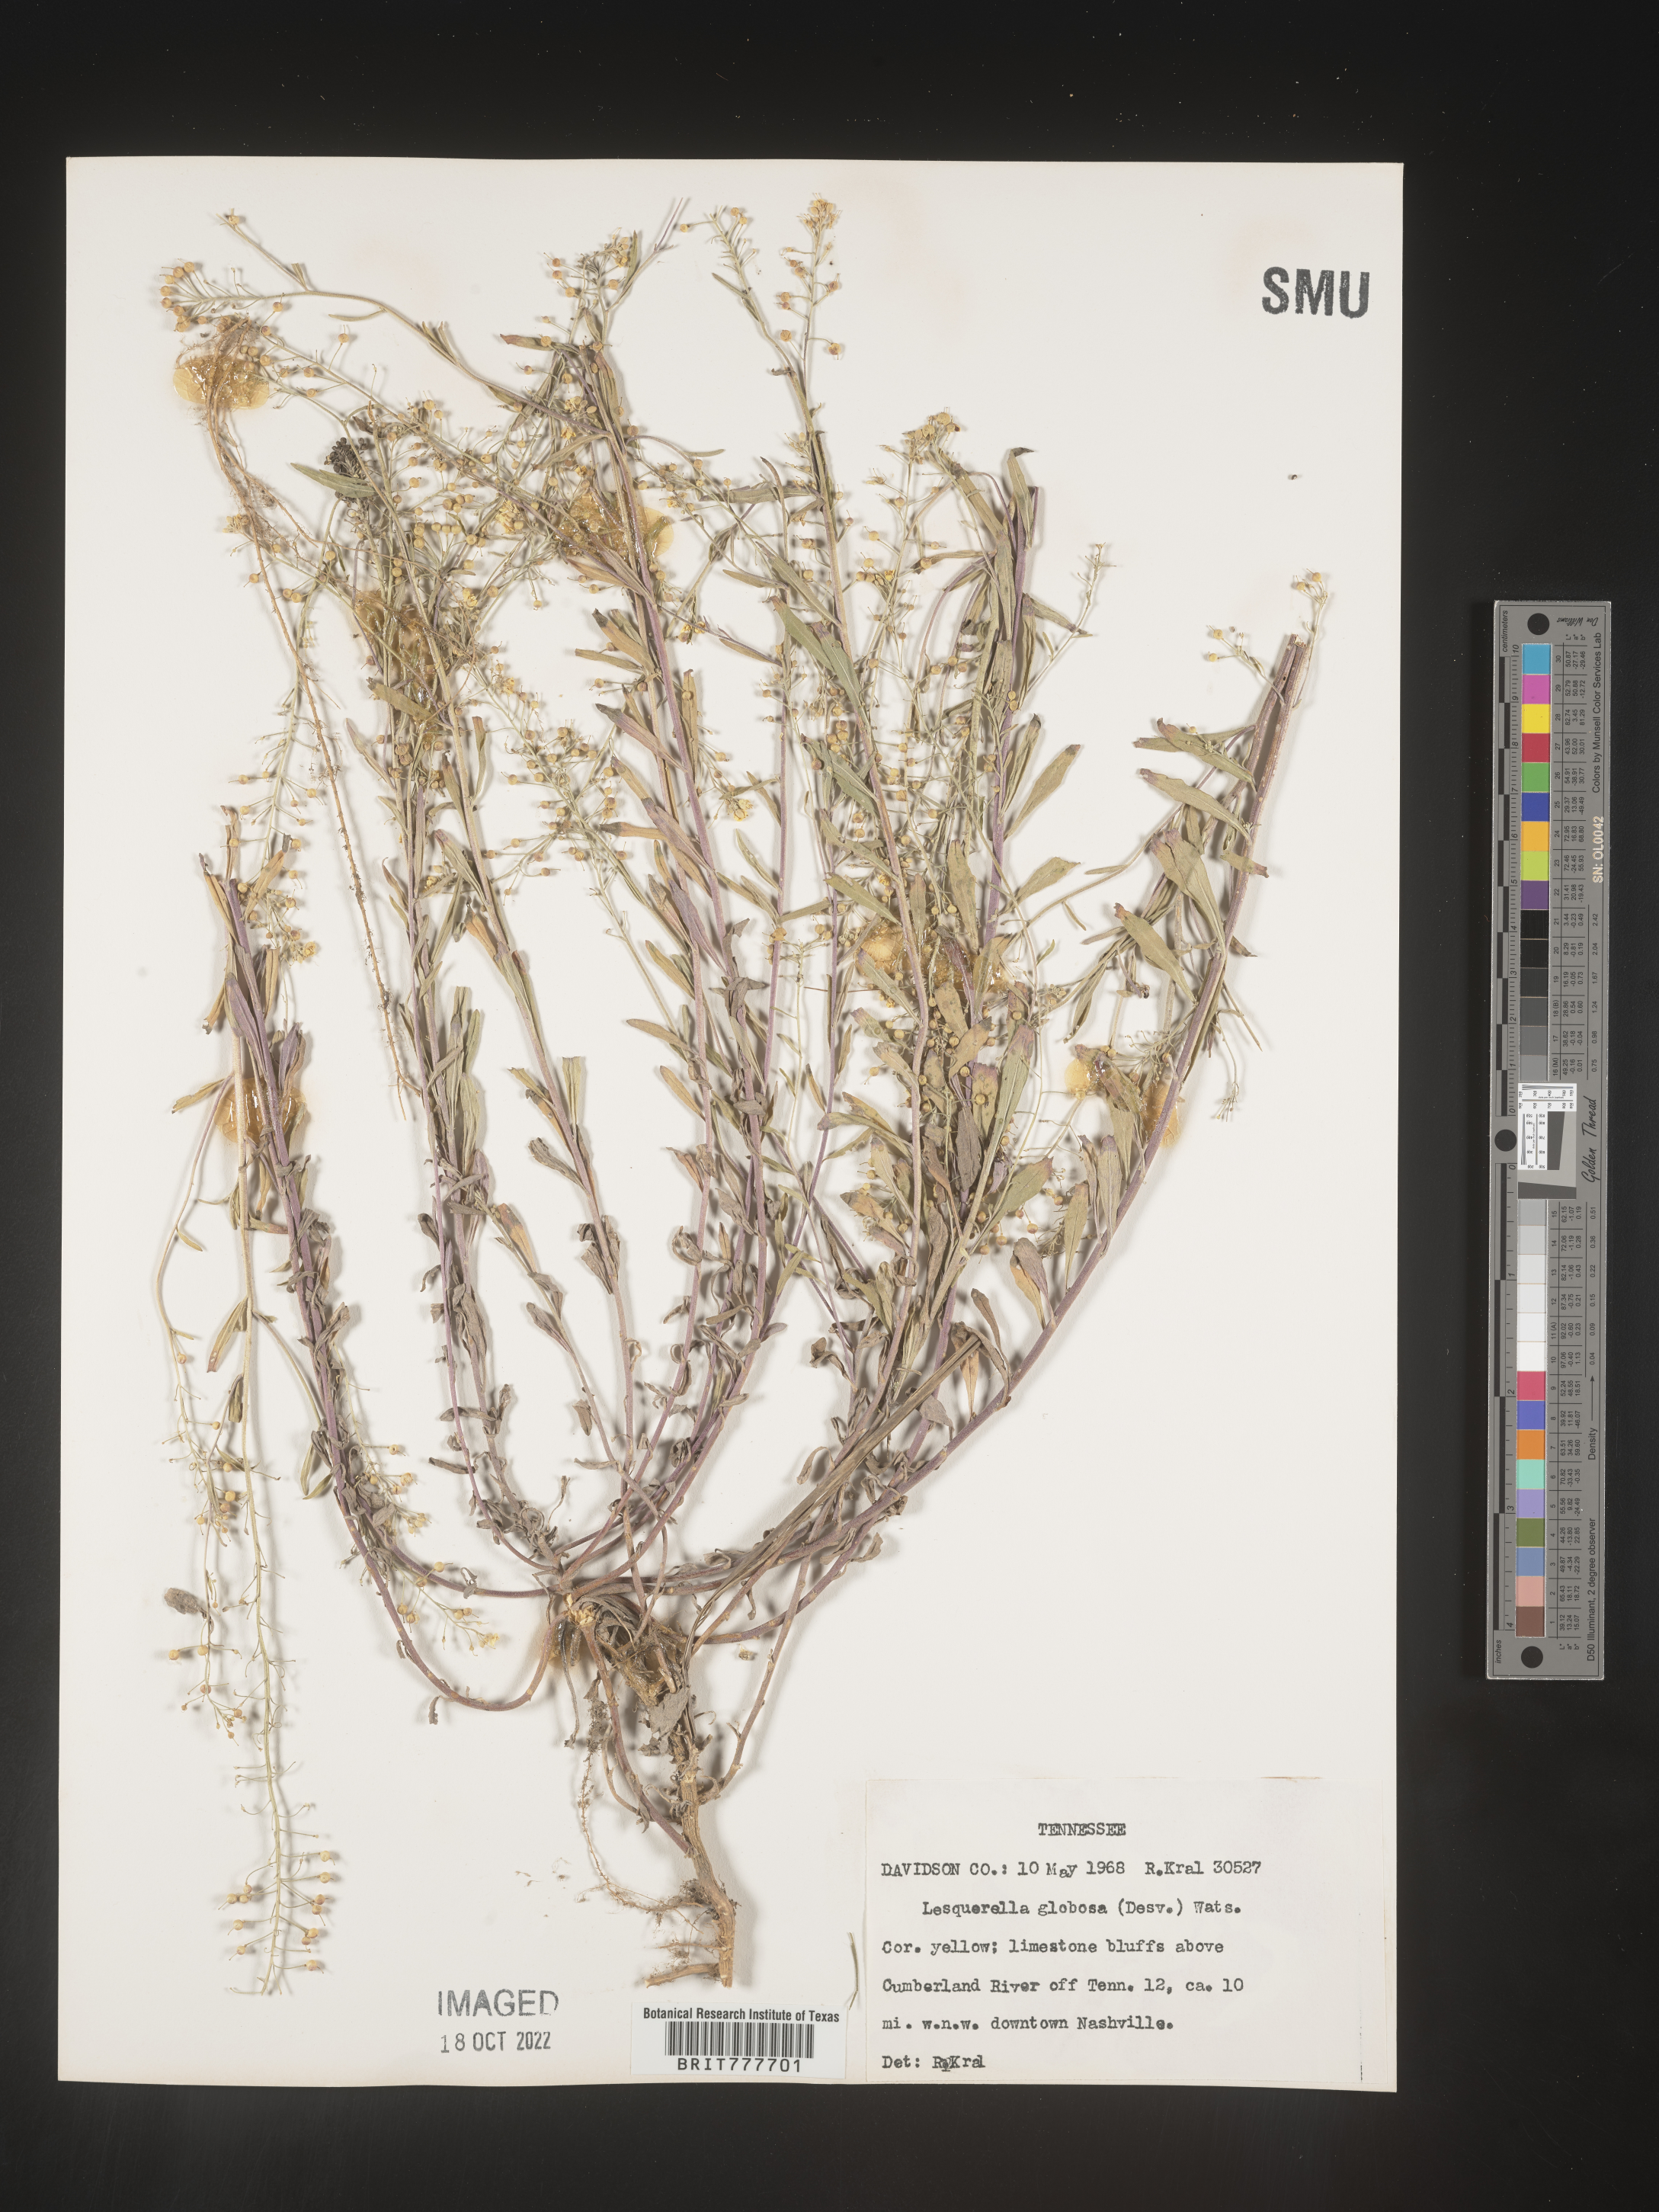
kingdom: Chromista
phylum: Cercozoa
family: Psammonobiotidae
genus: Lesquerella
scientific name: Lesquerella
